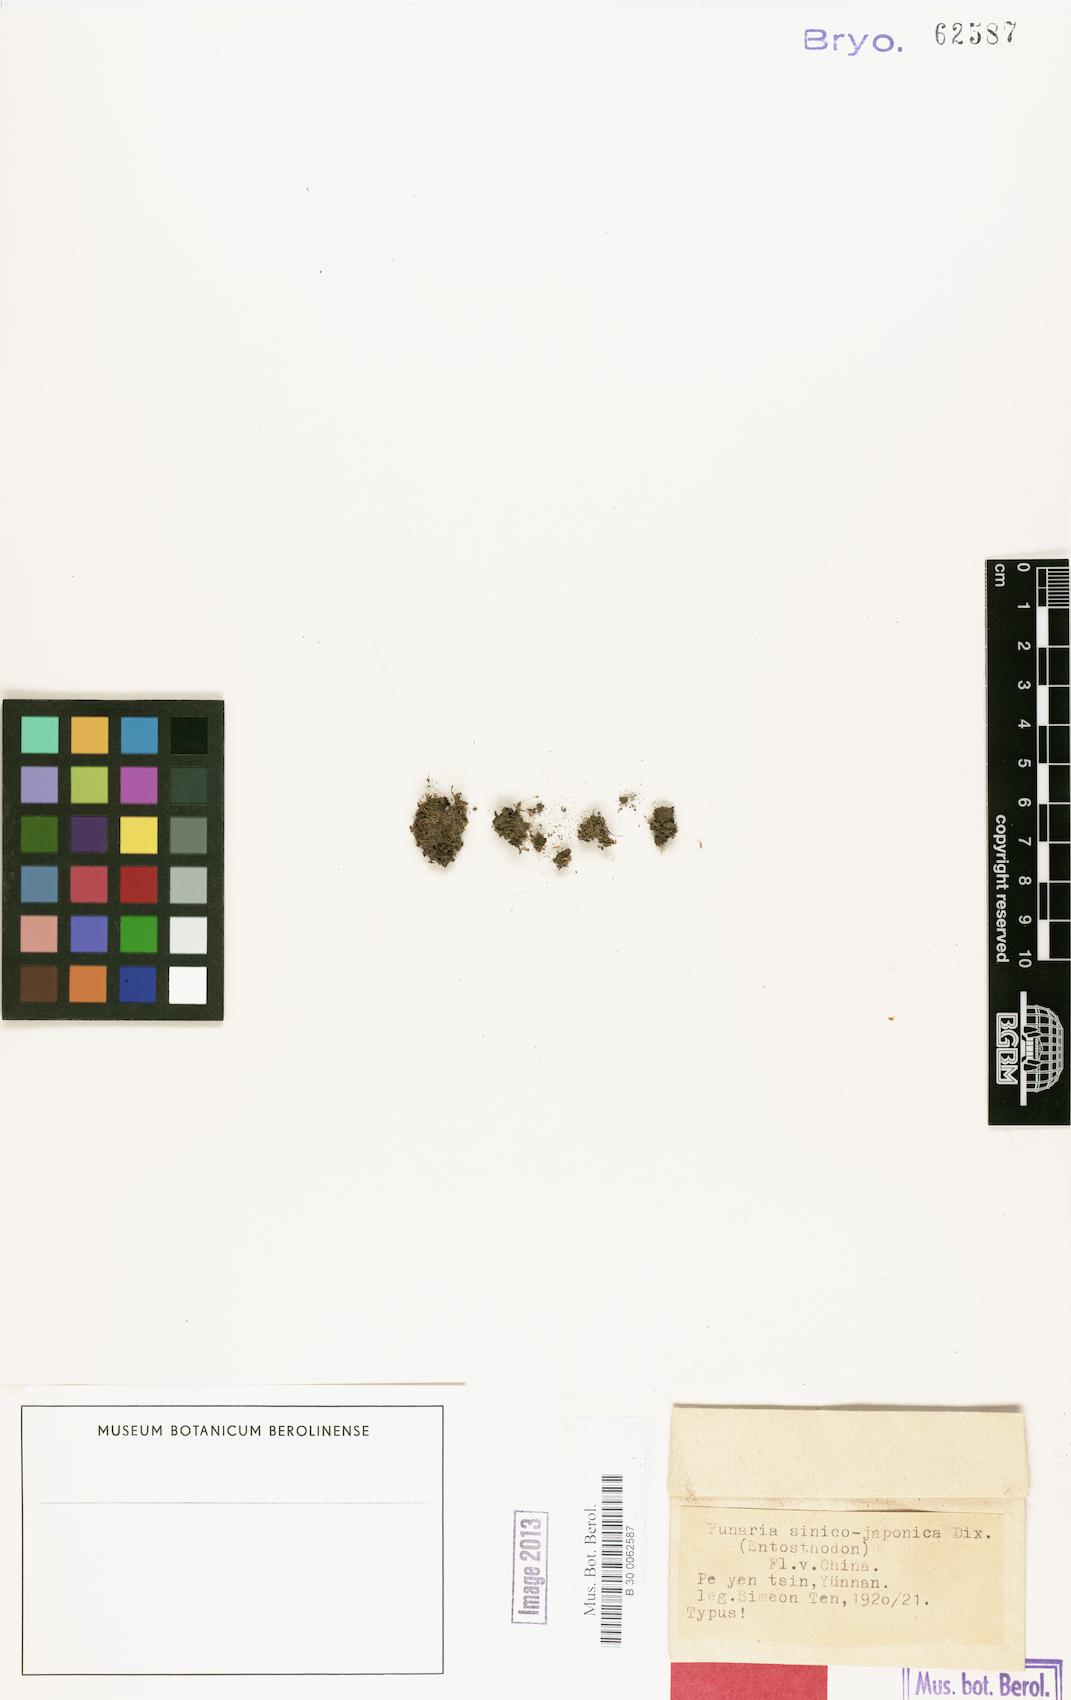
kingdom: Plantae
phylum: Bryophyta
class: Bryopsida
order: Funariales
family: Funariaceae
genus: Funaria
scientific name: Funaria
